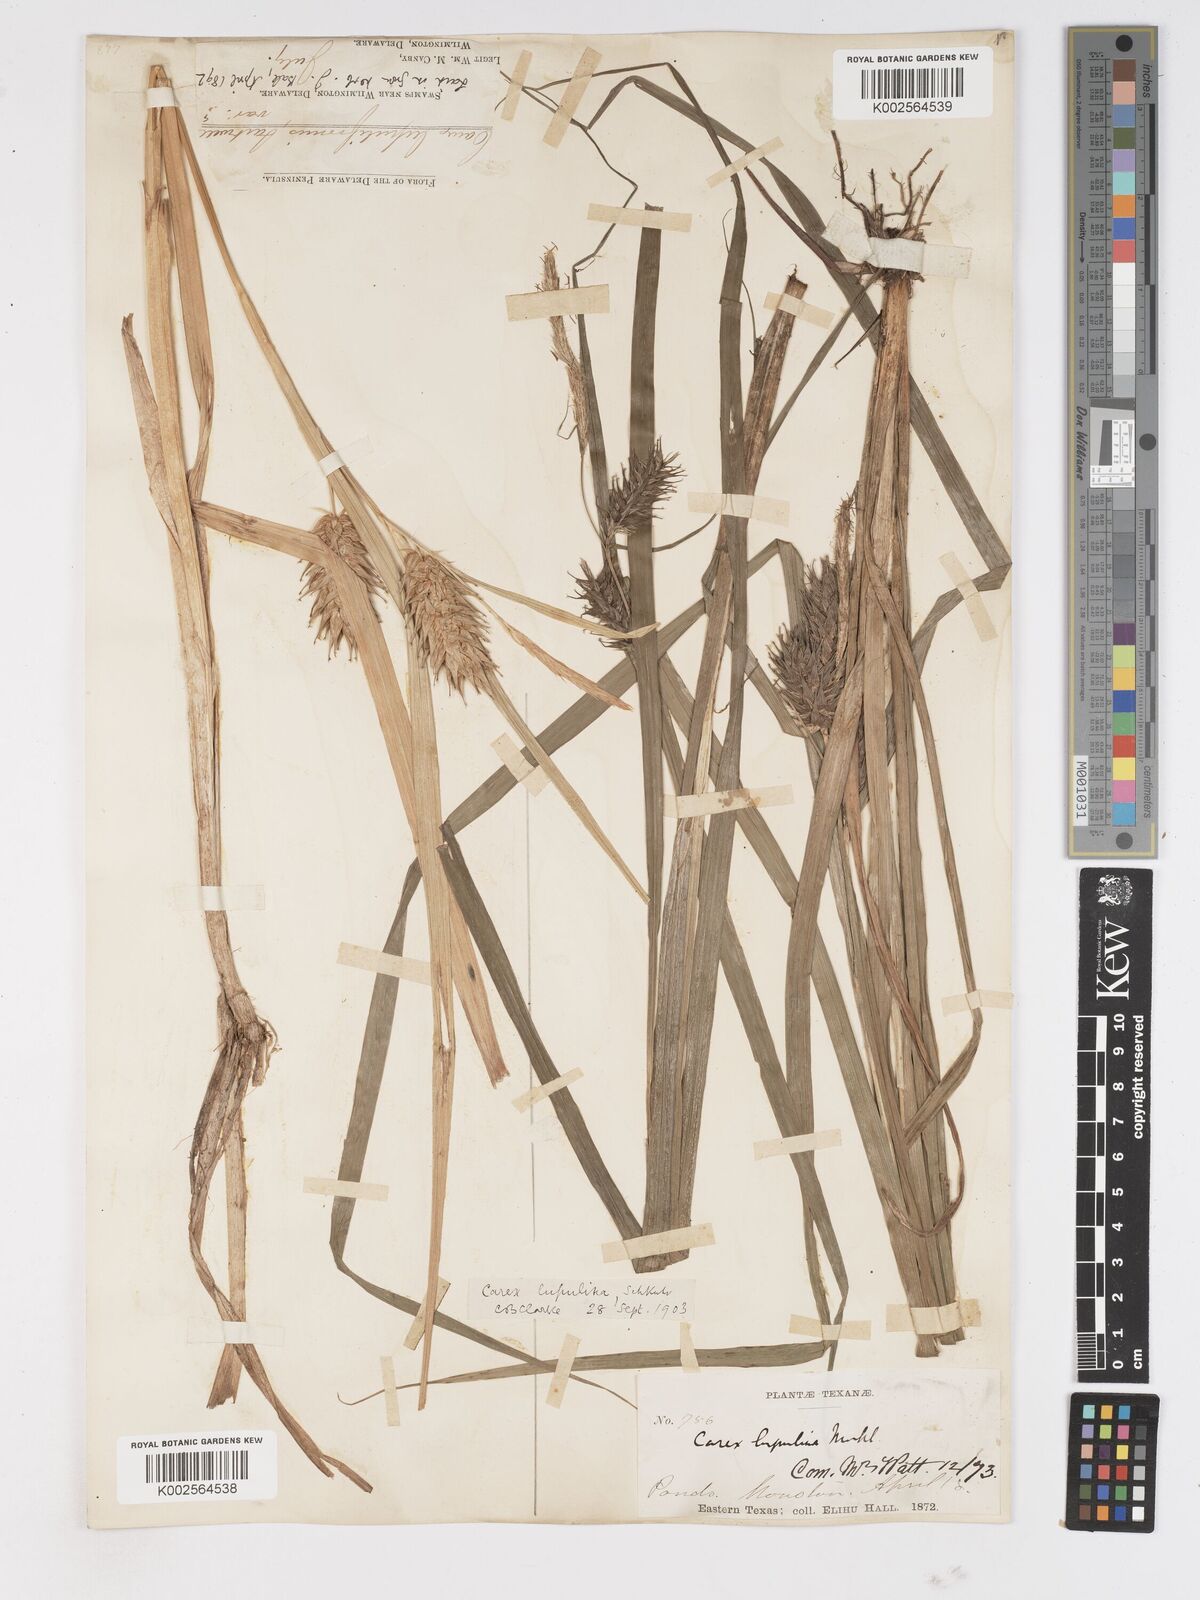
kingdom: Plantae
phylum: Tracheophyta
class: Liliopsida
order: Poales
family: Cyperaceae
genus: Carex
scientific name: Carex lupulina
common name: Hop sedge
